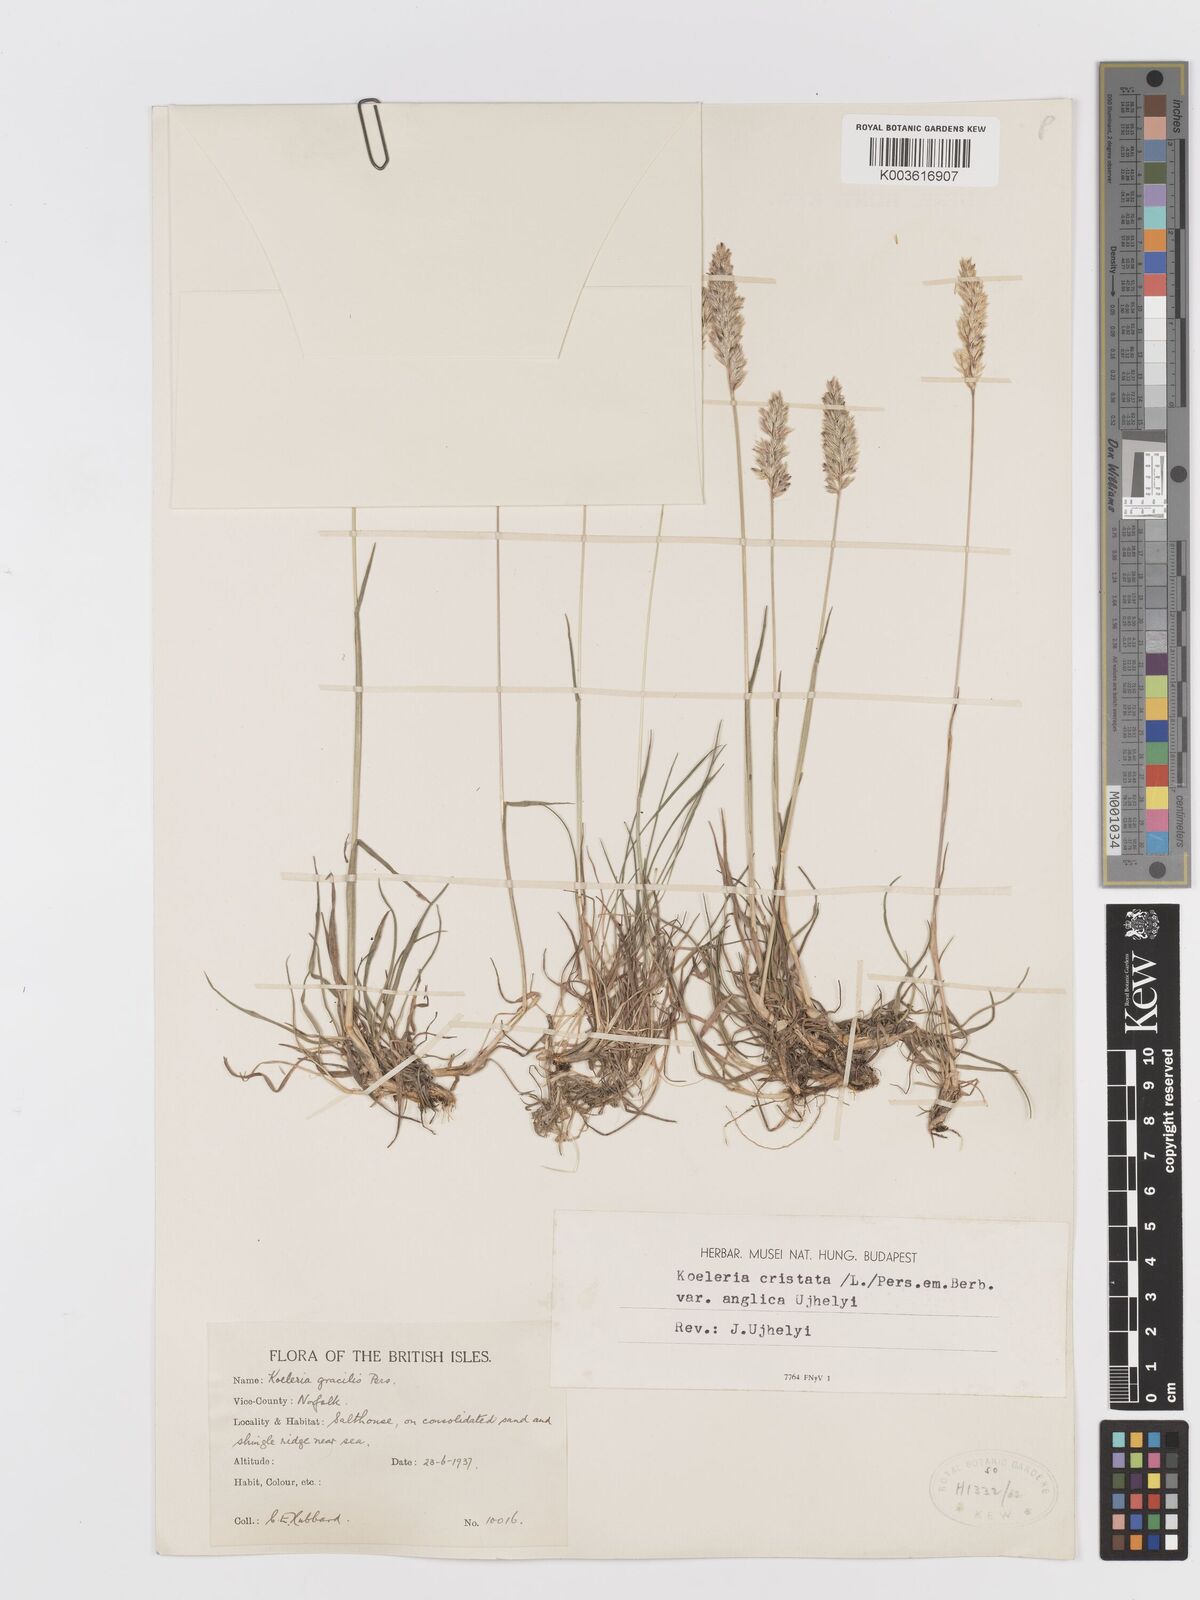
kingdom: Plantae
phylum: Tracheophyta
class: Liliopsida
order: Poales
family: Poaceae
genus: Koeleria
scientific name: Koeleria macrantha
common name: Crested hair-grass
